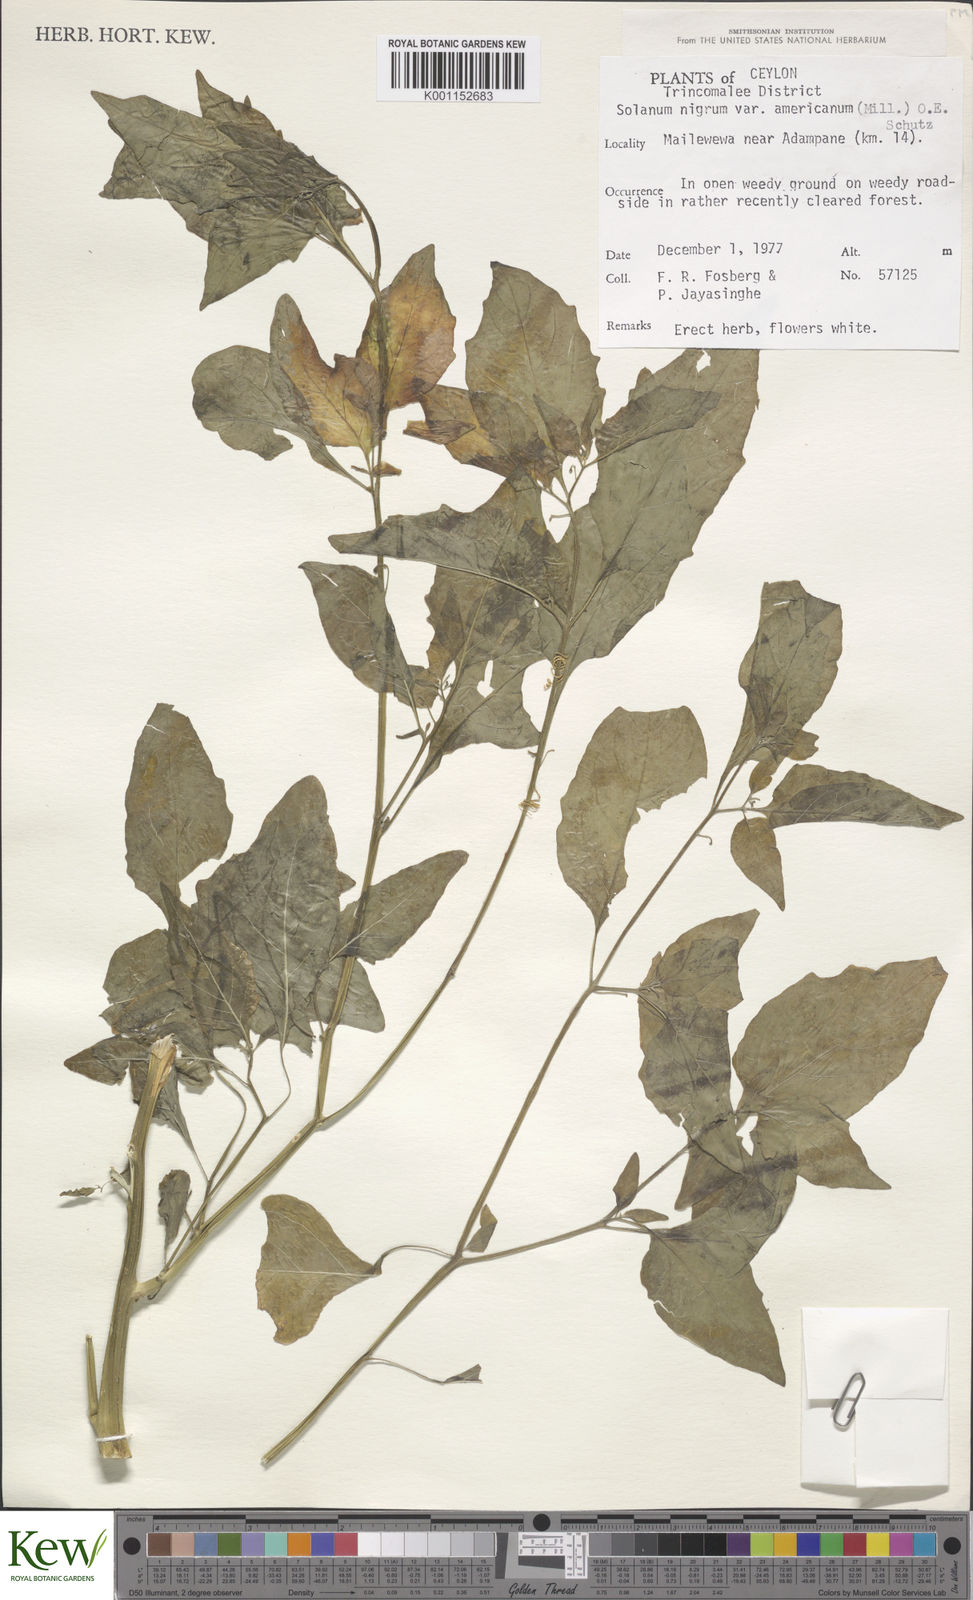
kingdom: Plantae
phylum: Tracheophyta
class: Magnoliopsida
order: Solanales
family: Solanaceae
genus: Solanum
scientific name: Solanum nigrum
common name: Black nightshade
